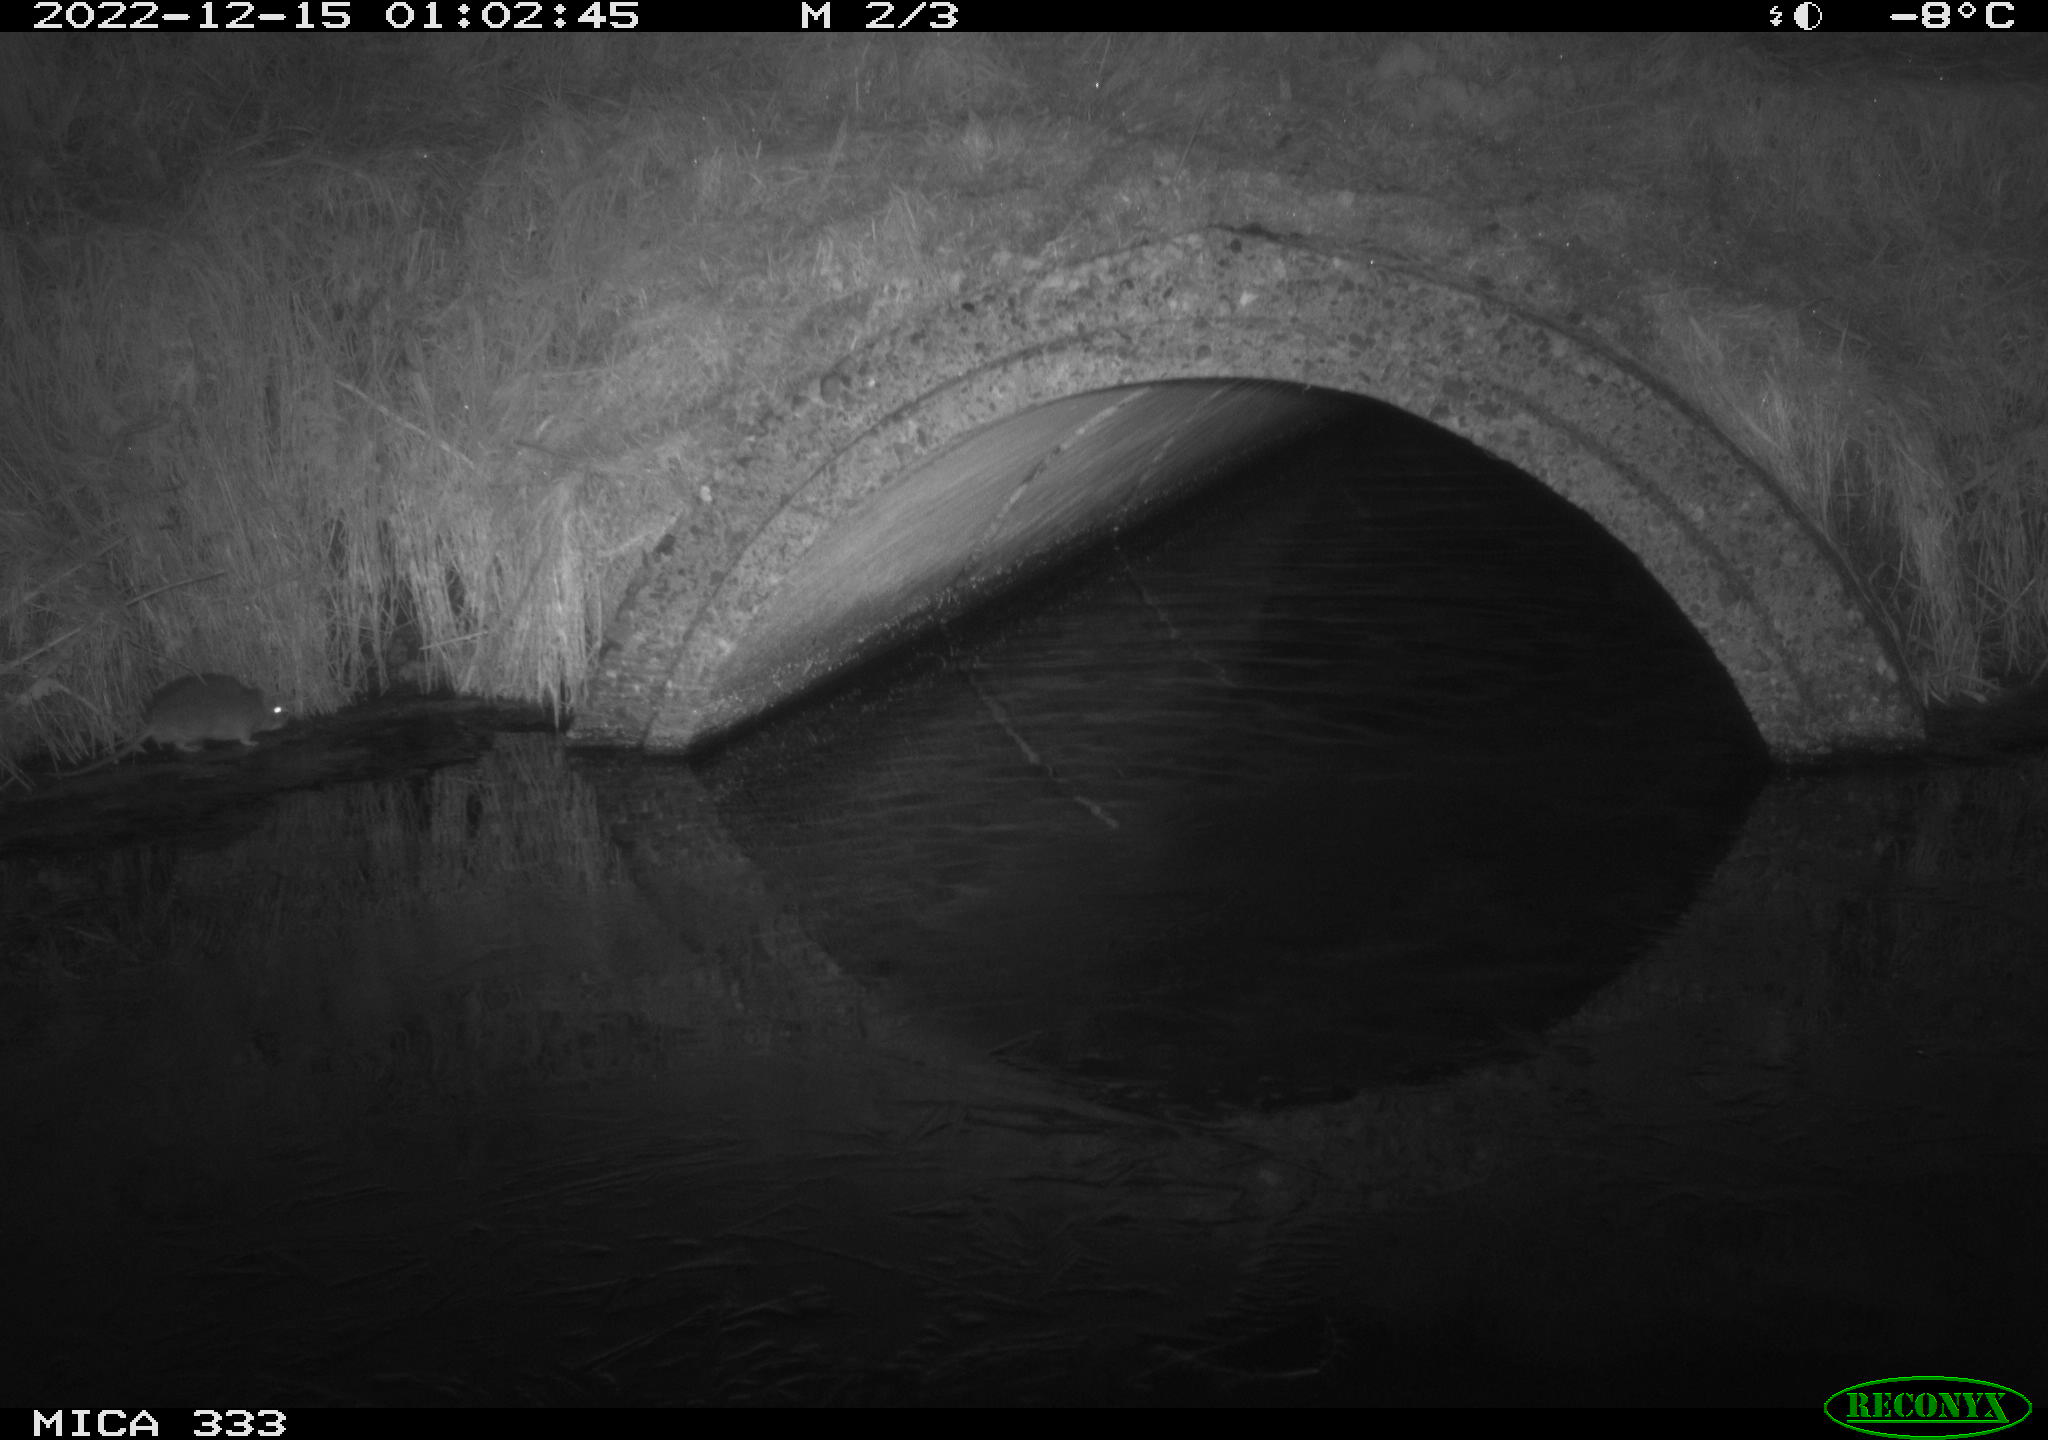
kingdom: Animalia
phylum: Chordata
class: Mammalia
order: Rodentia
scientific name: Rodentia
